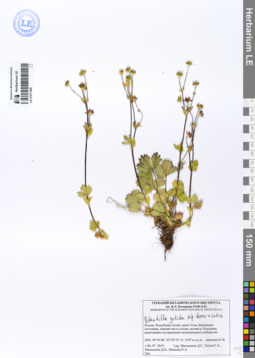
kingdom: Plantae
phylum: Tracheophyta
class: Magnoliopsida
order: Rosales
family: Rosaceae
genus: Potentilla
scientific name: Potentilla crantzii
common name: Alpine cinquefoil
